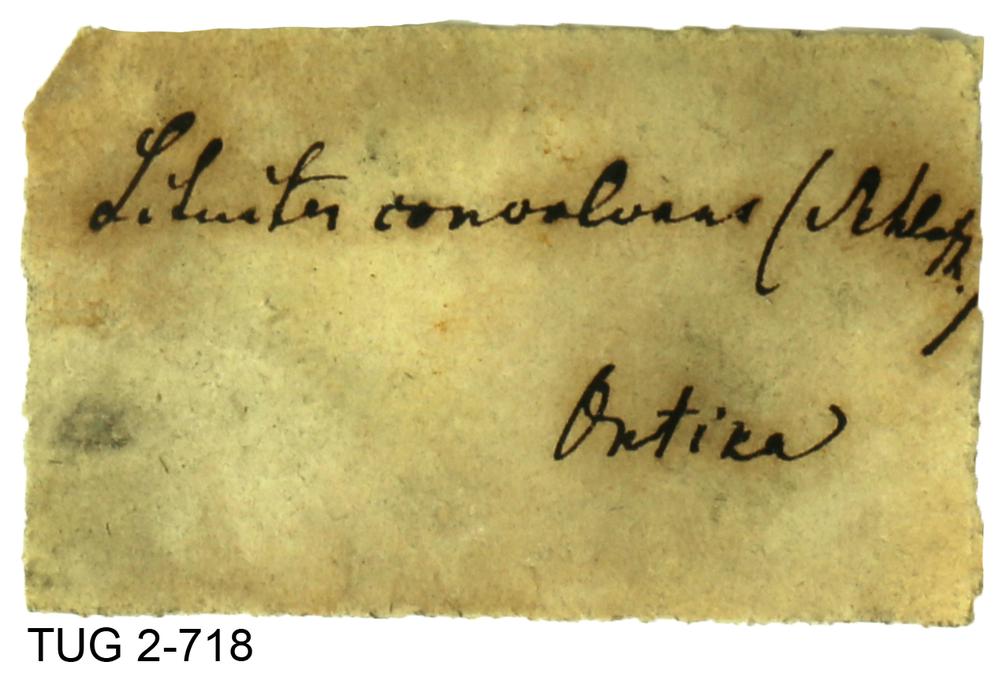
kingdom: Animalia
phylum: Mollusca
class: Cephalopoda
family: Trocholitidae
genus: Discoceras
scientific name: Discoceras
